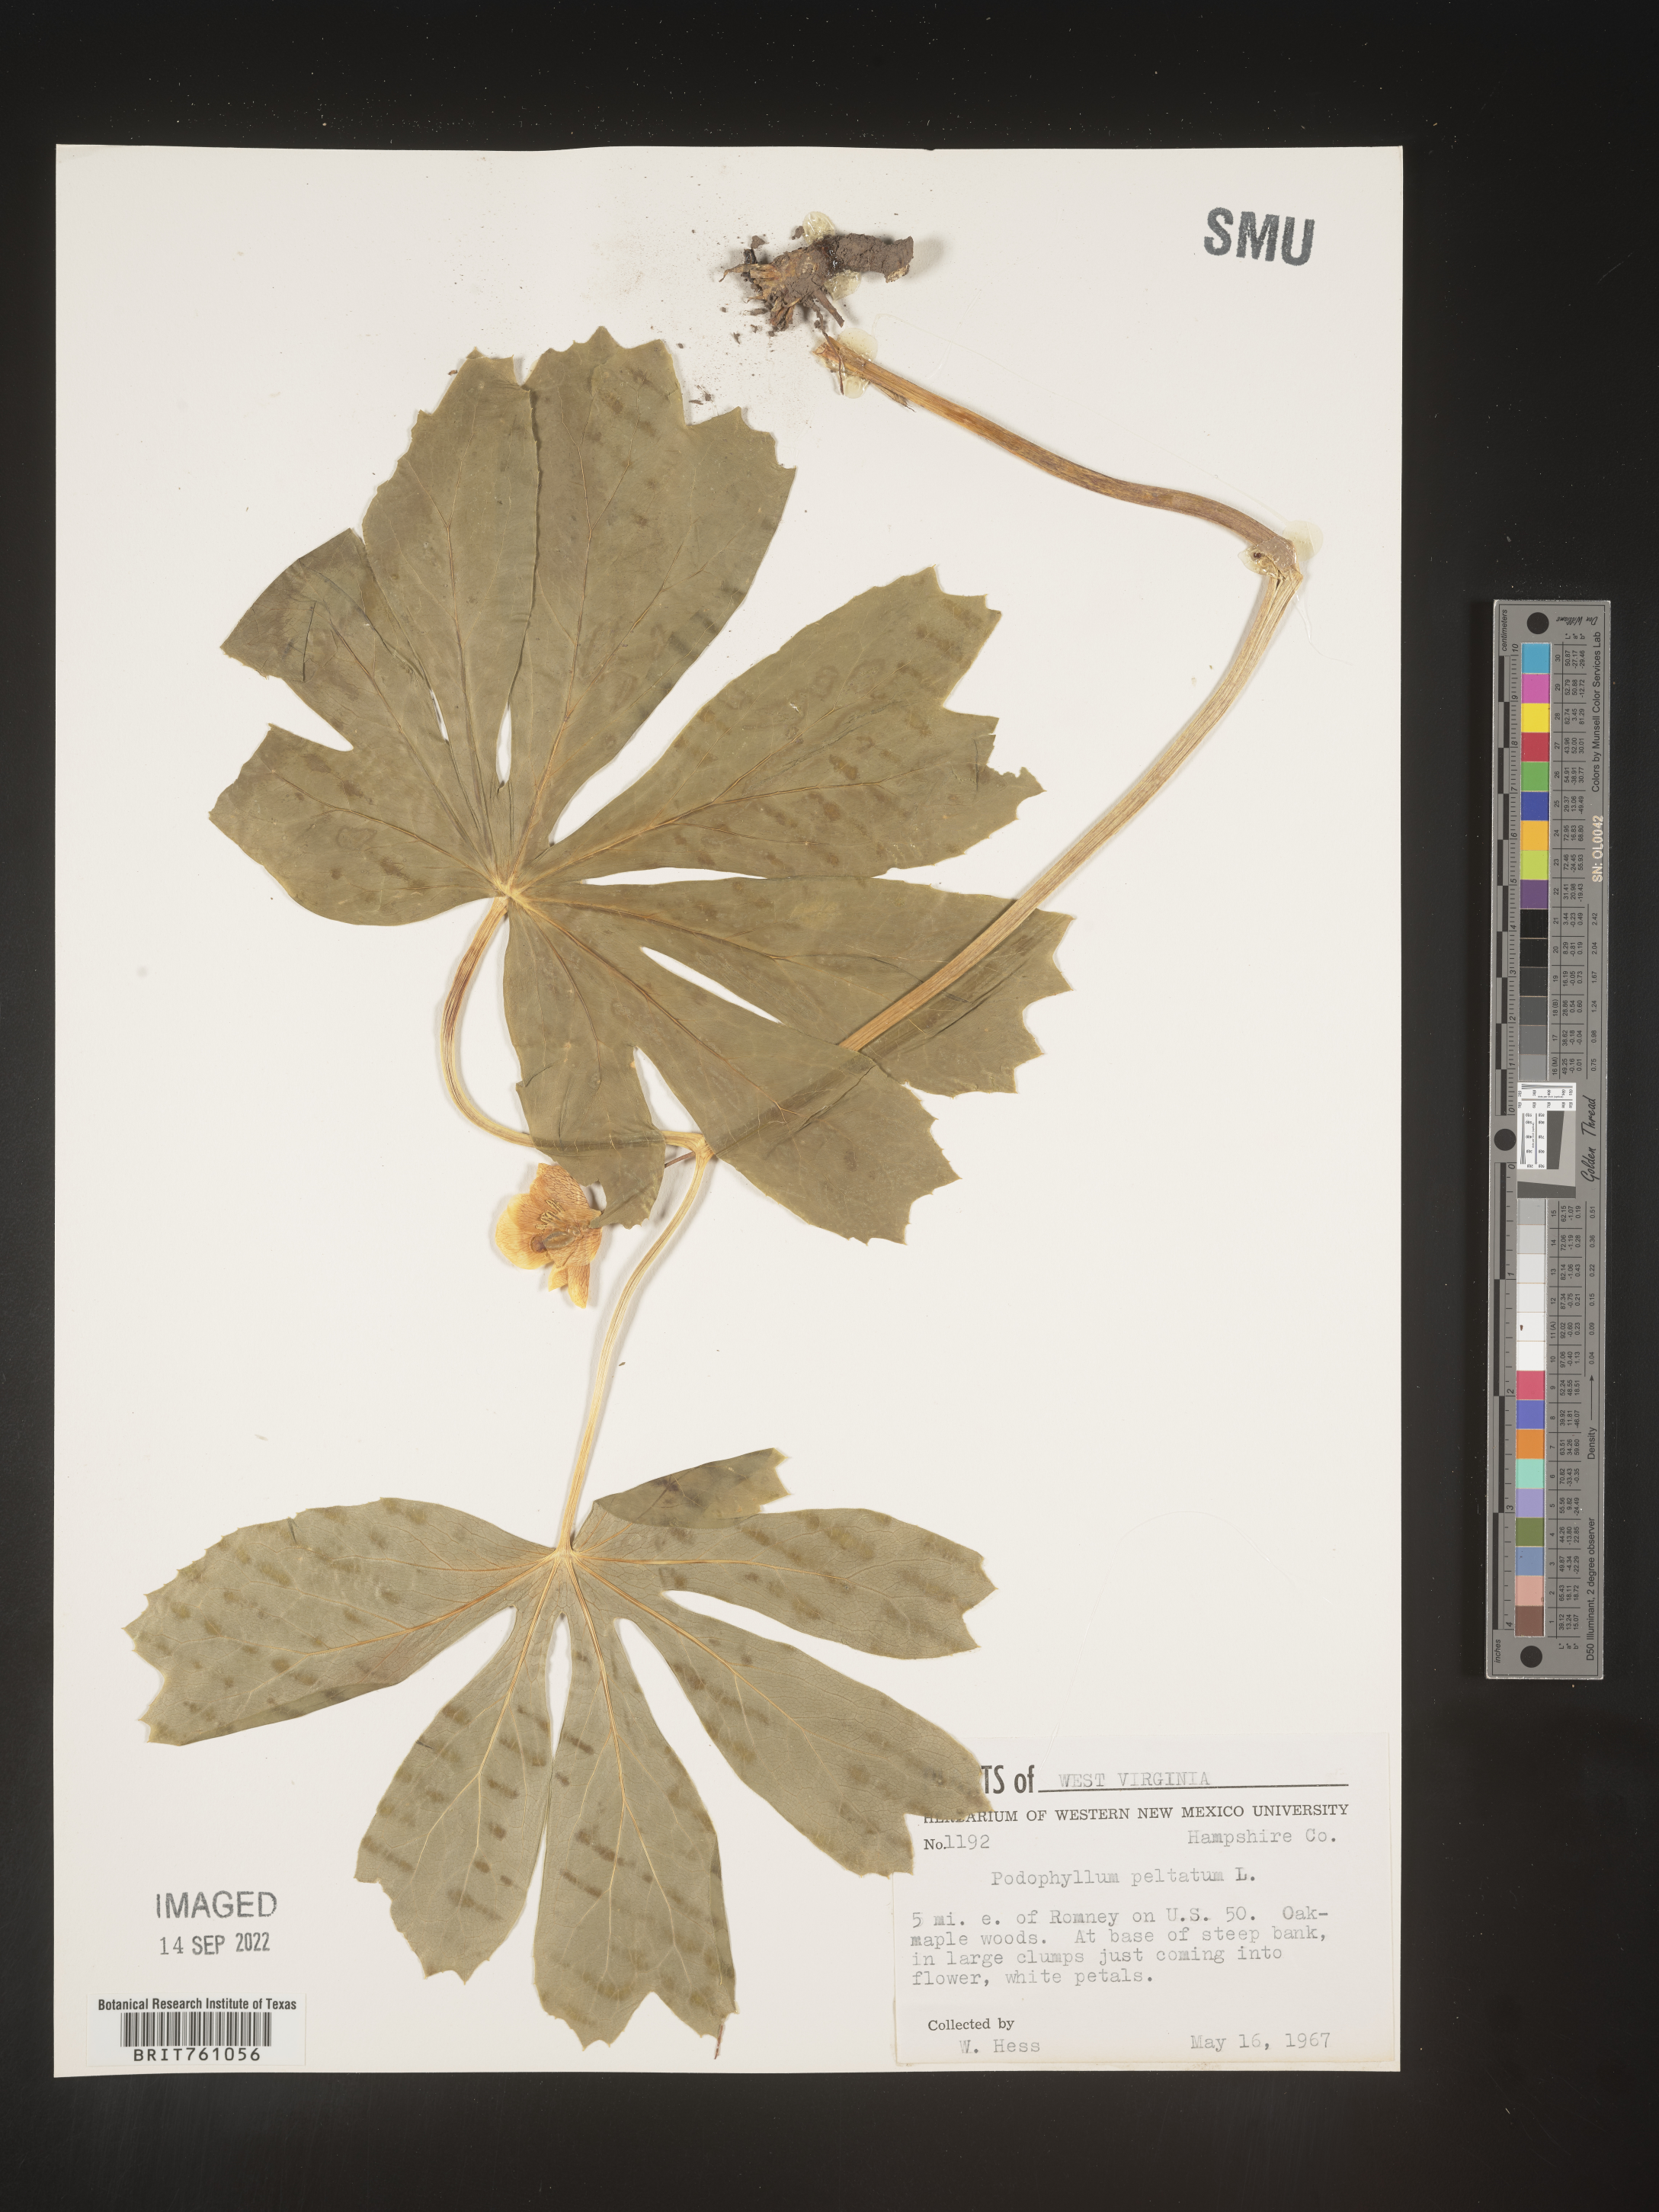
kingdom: Plantae
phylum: Tracheophyta
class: Magnoliopsida
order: Ranunculales
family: Berberidaceae
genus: Podophyllum
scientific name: Podophyllum peltatum
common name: Wild mandrake
